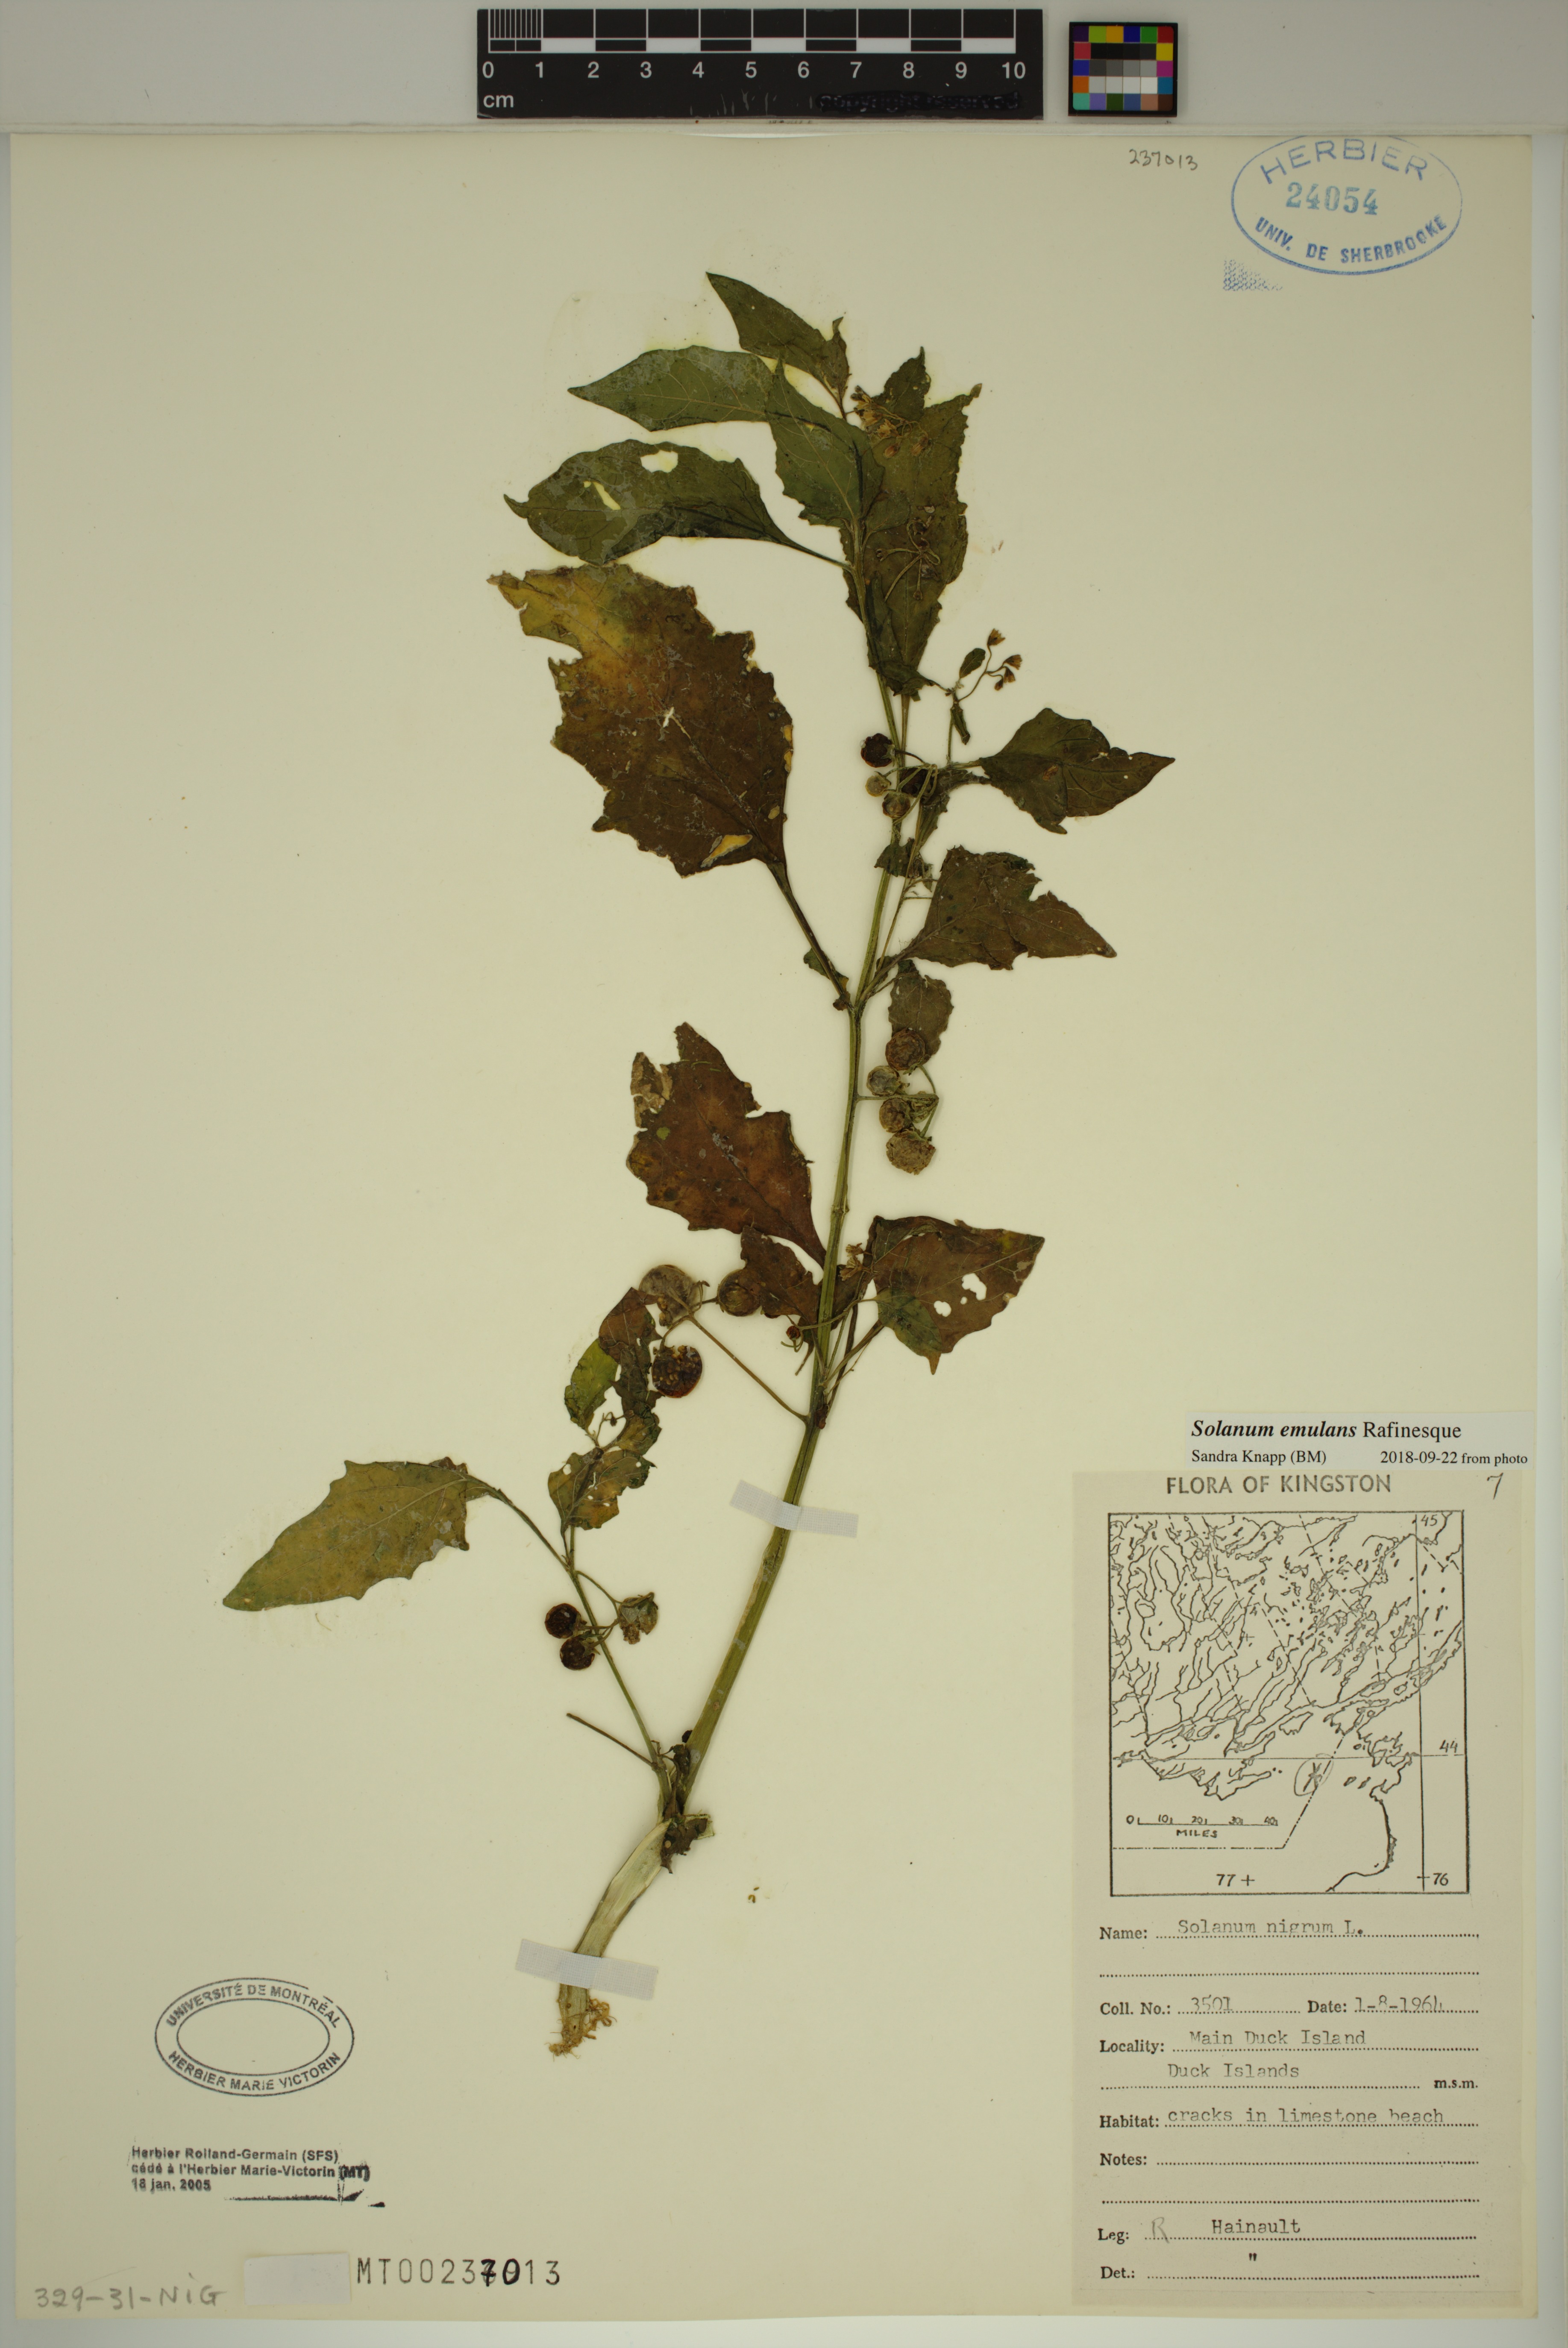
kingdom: Plantae
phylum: Tracheophyta
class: Magnoliopsida
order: Solanales
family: Solanaceae
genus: Solanum
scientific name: Solanum emulans
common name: Eastern black nightshade
